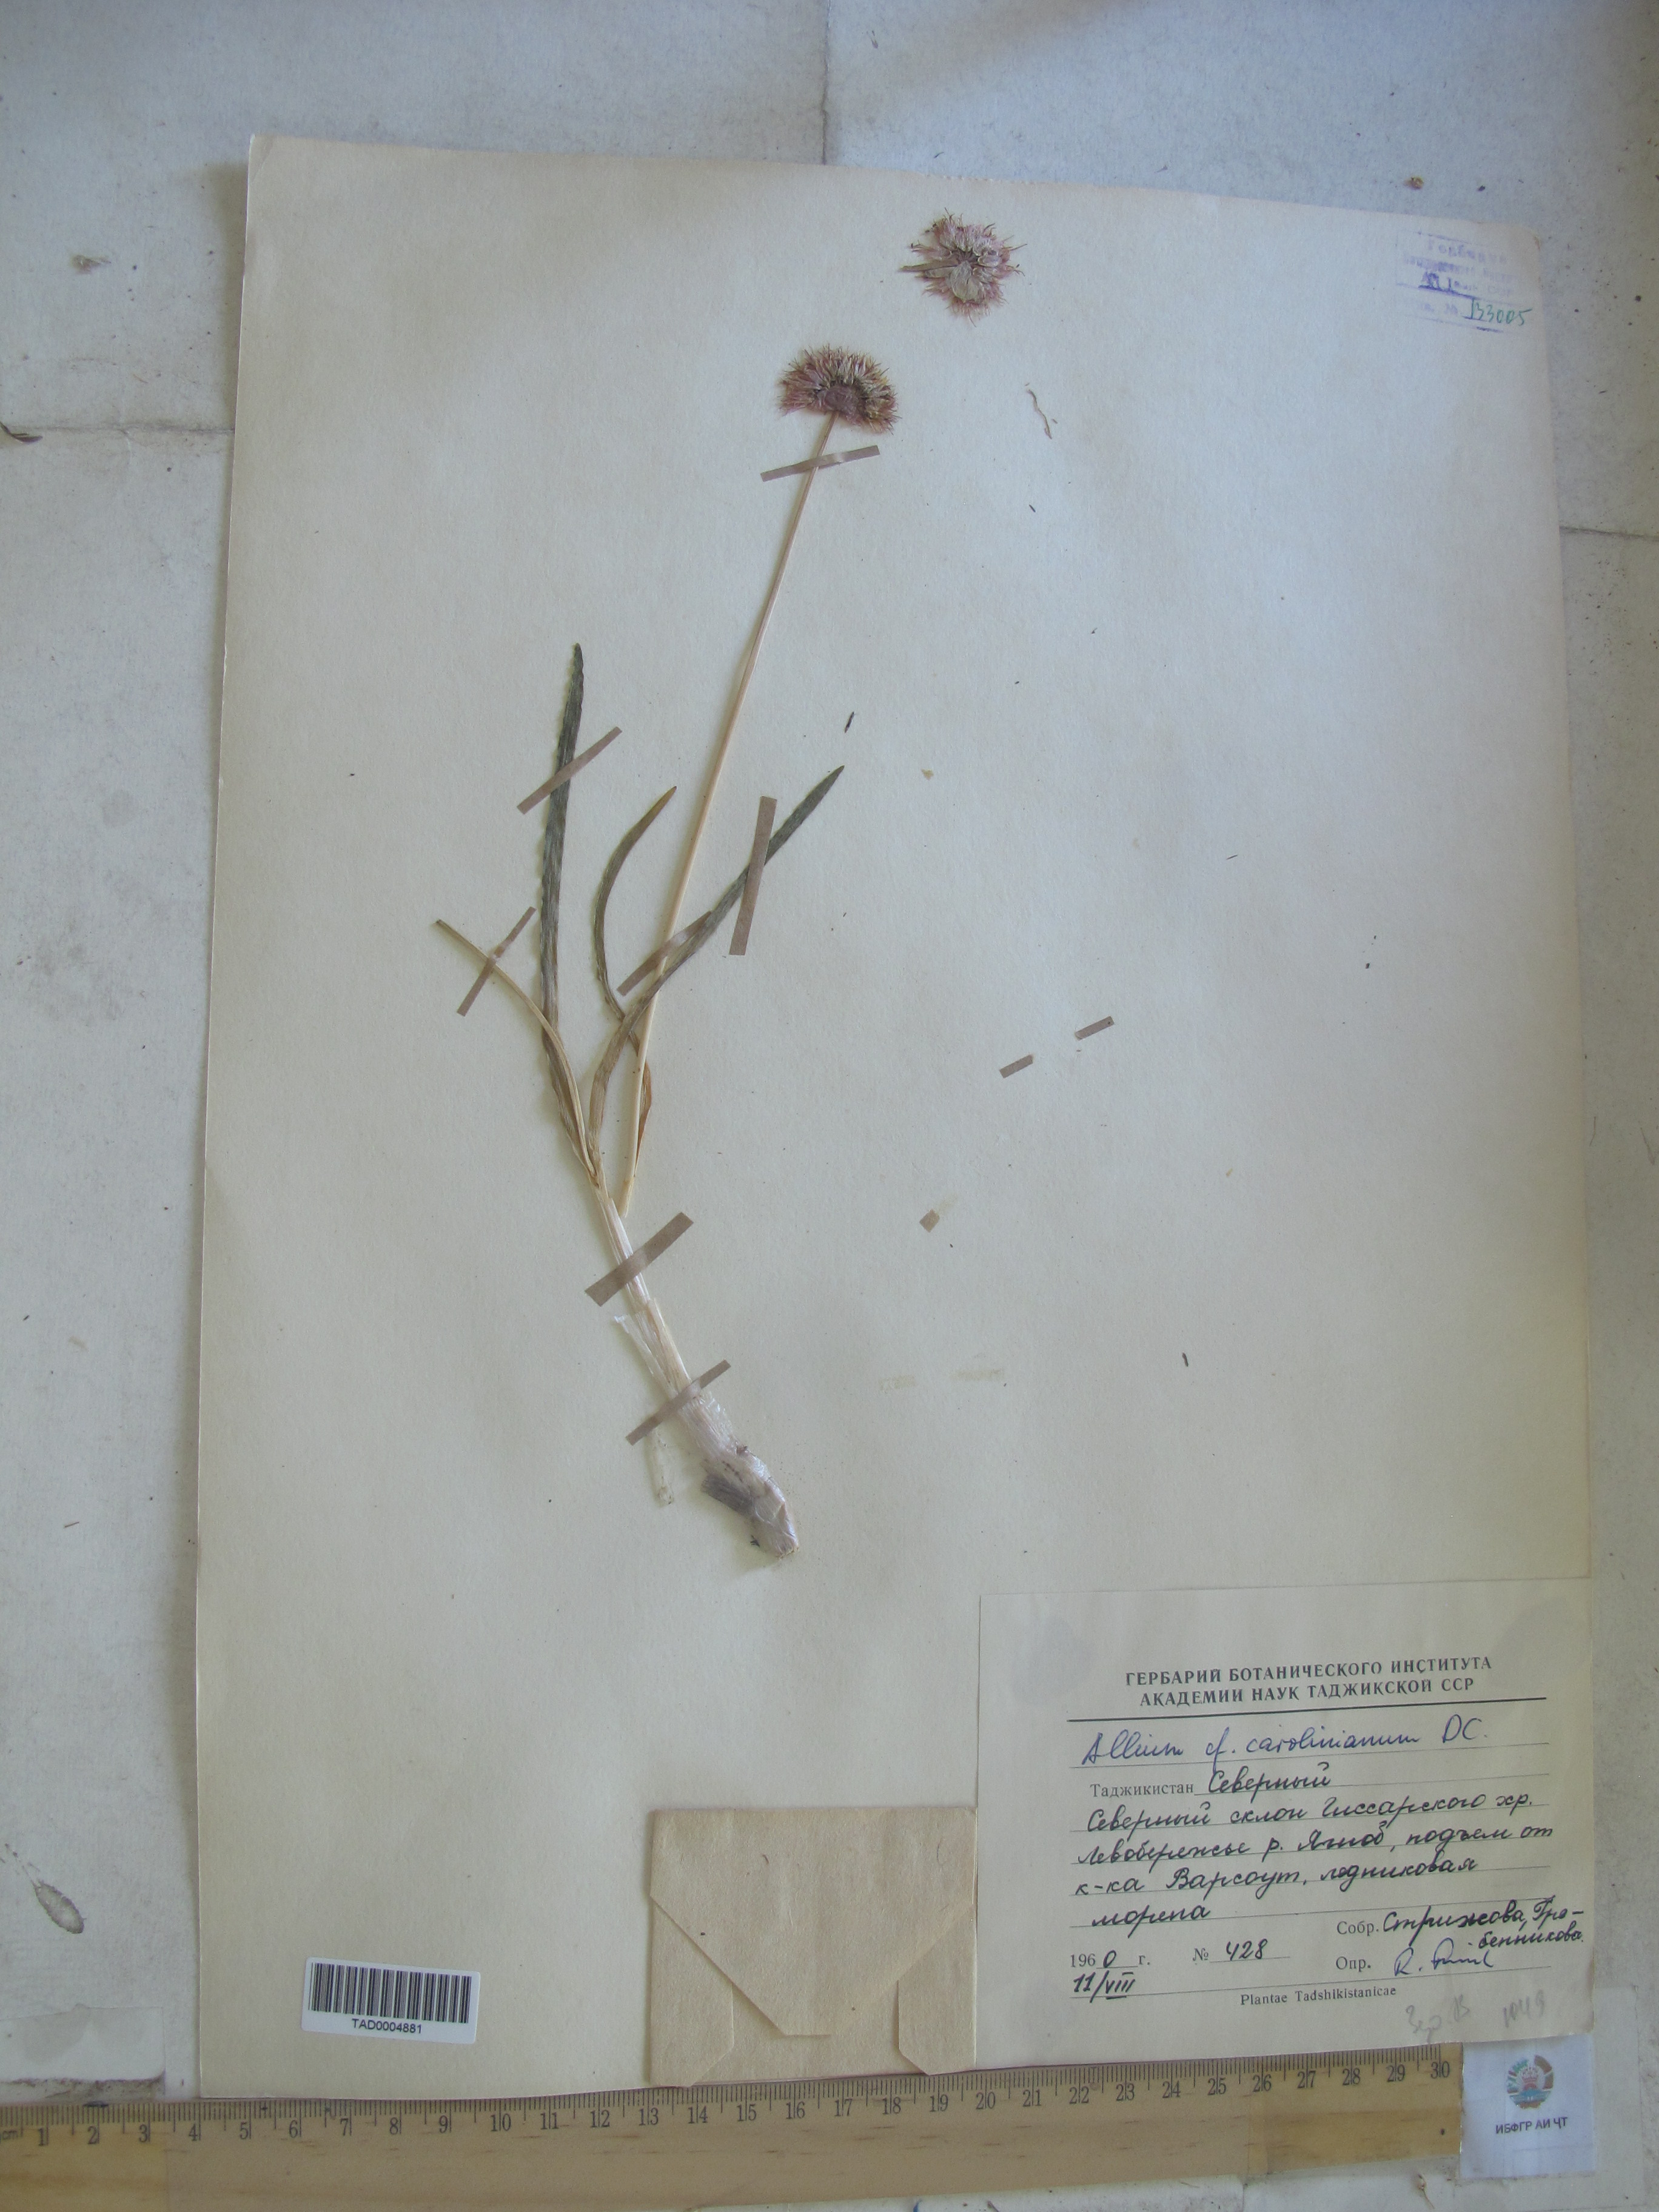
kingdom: Plantae
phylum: Tracheophyta
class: Liliopsida
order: Asparagales
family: Amaryllidaceae
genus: Allium
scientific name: Allium carolinianum
